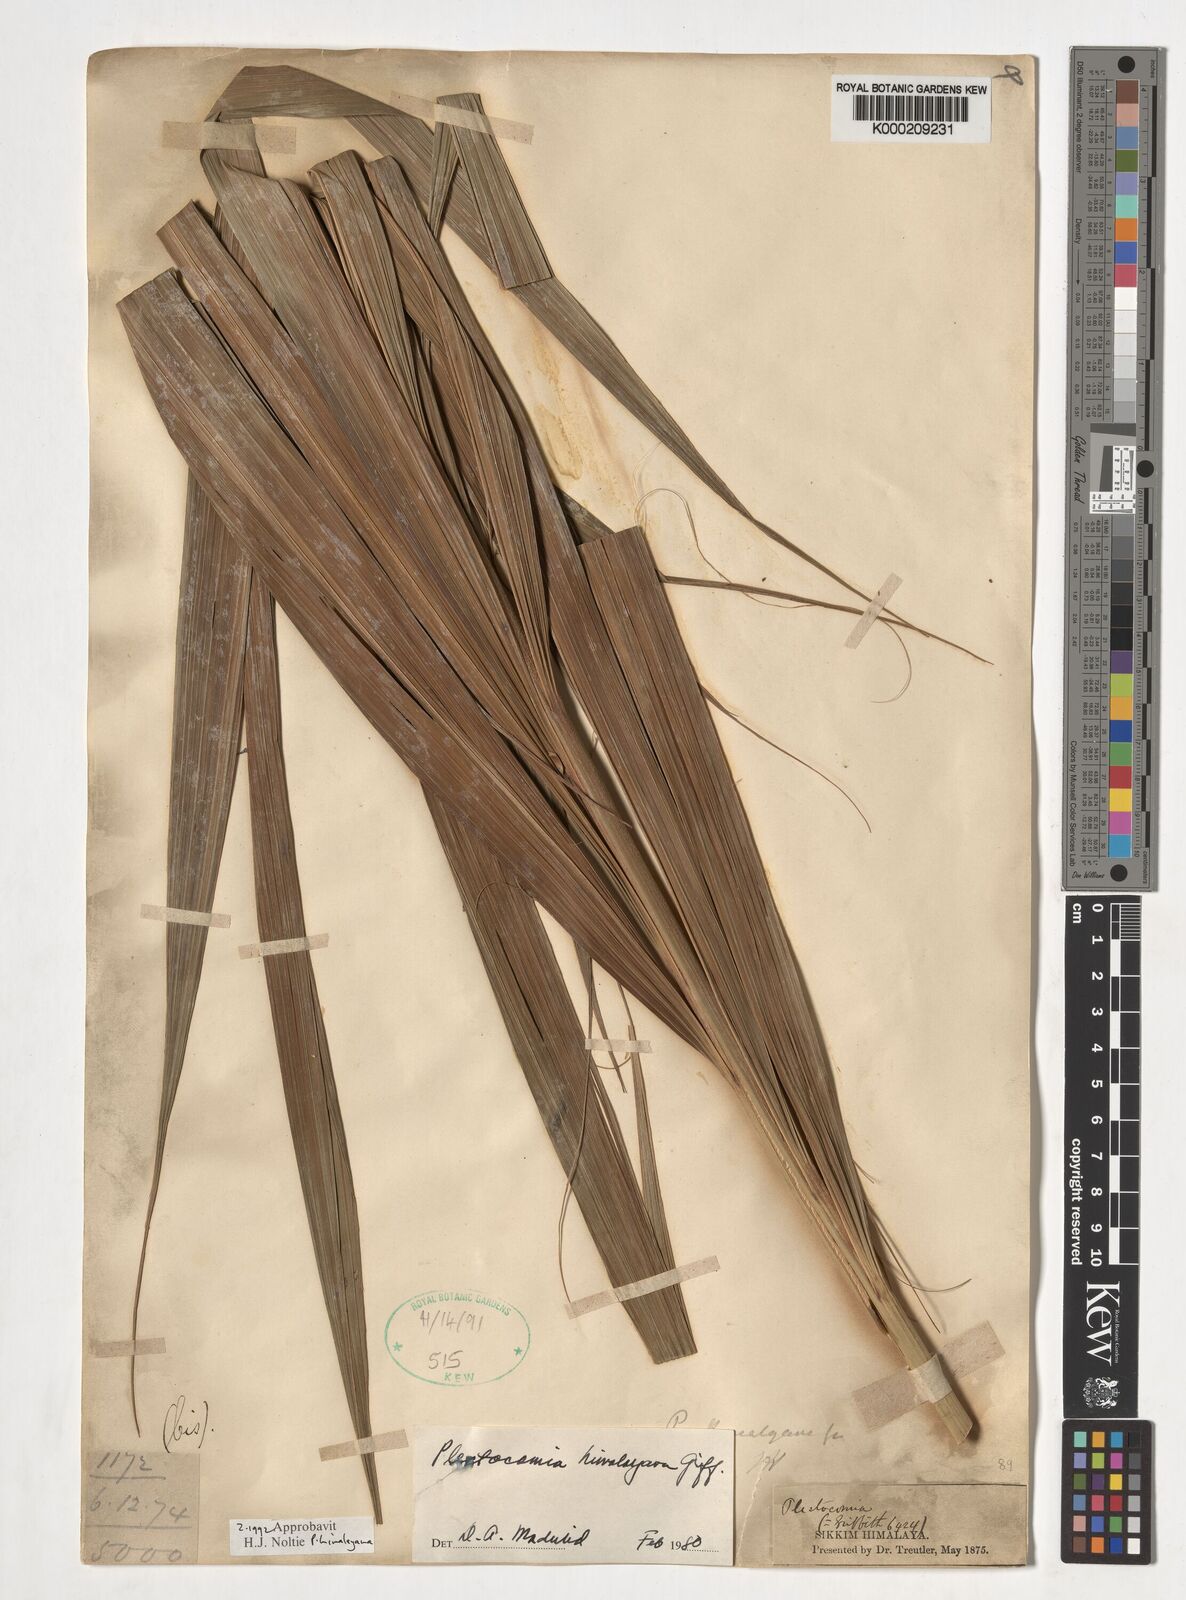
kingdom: Plantae
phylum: Tracheophyta
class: Liliopsida
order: Arecales
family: Arecaceae
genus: Plectocomia
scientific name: Plectocomia himalayana
